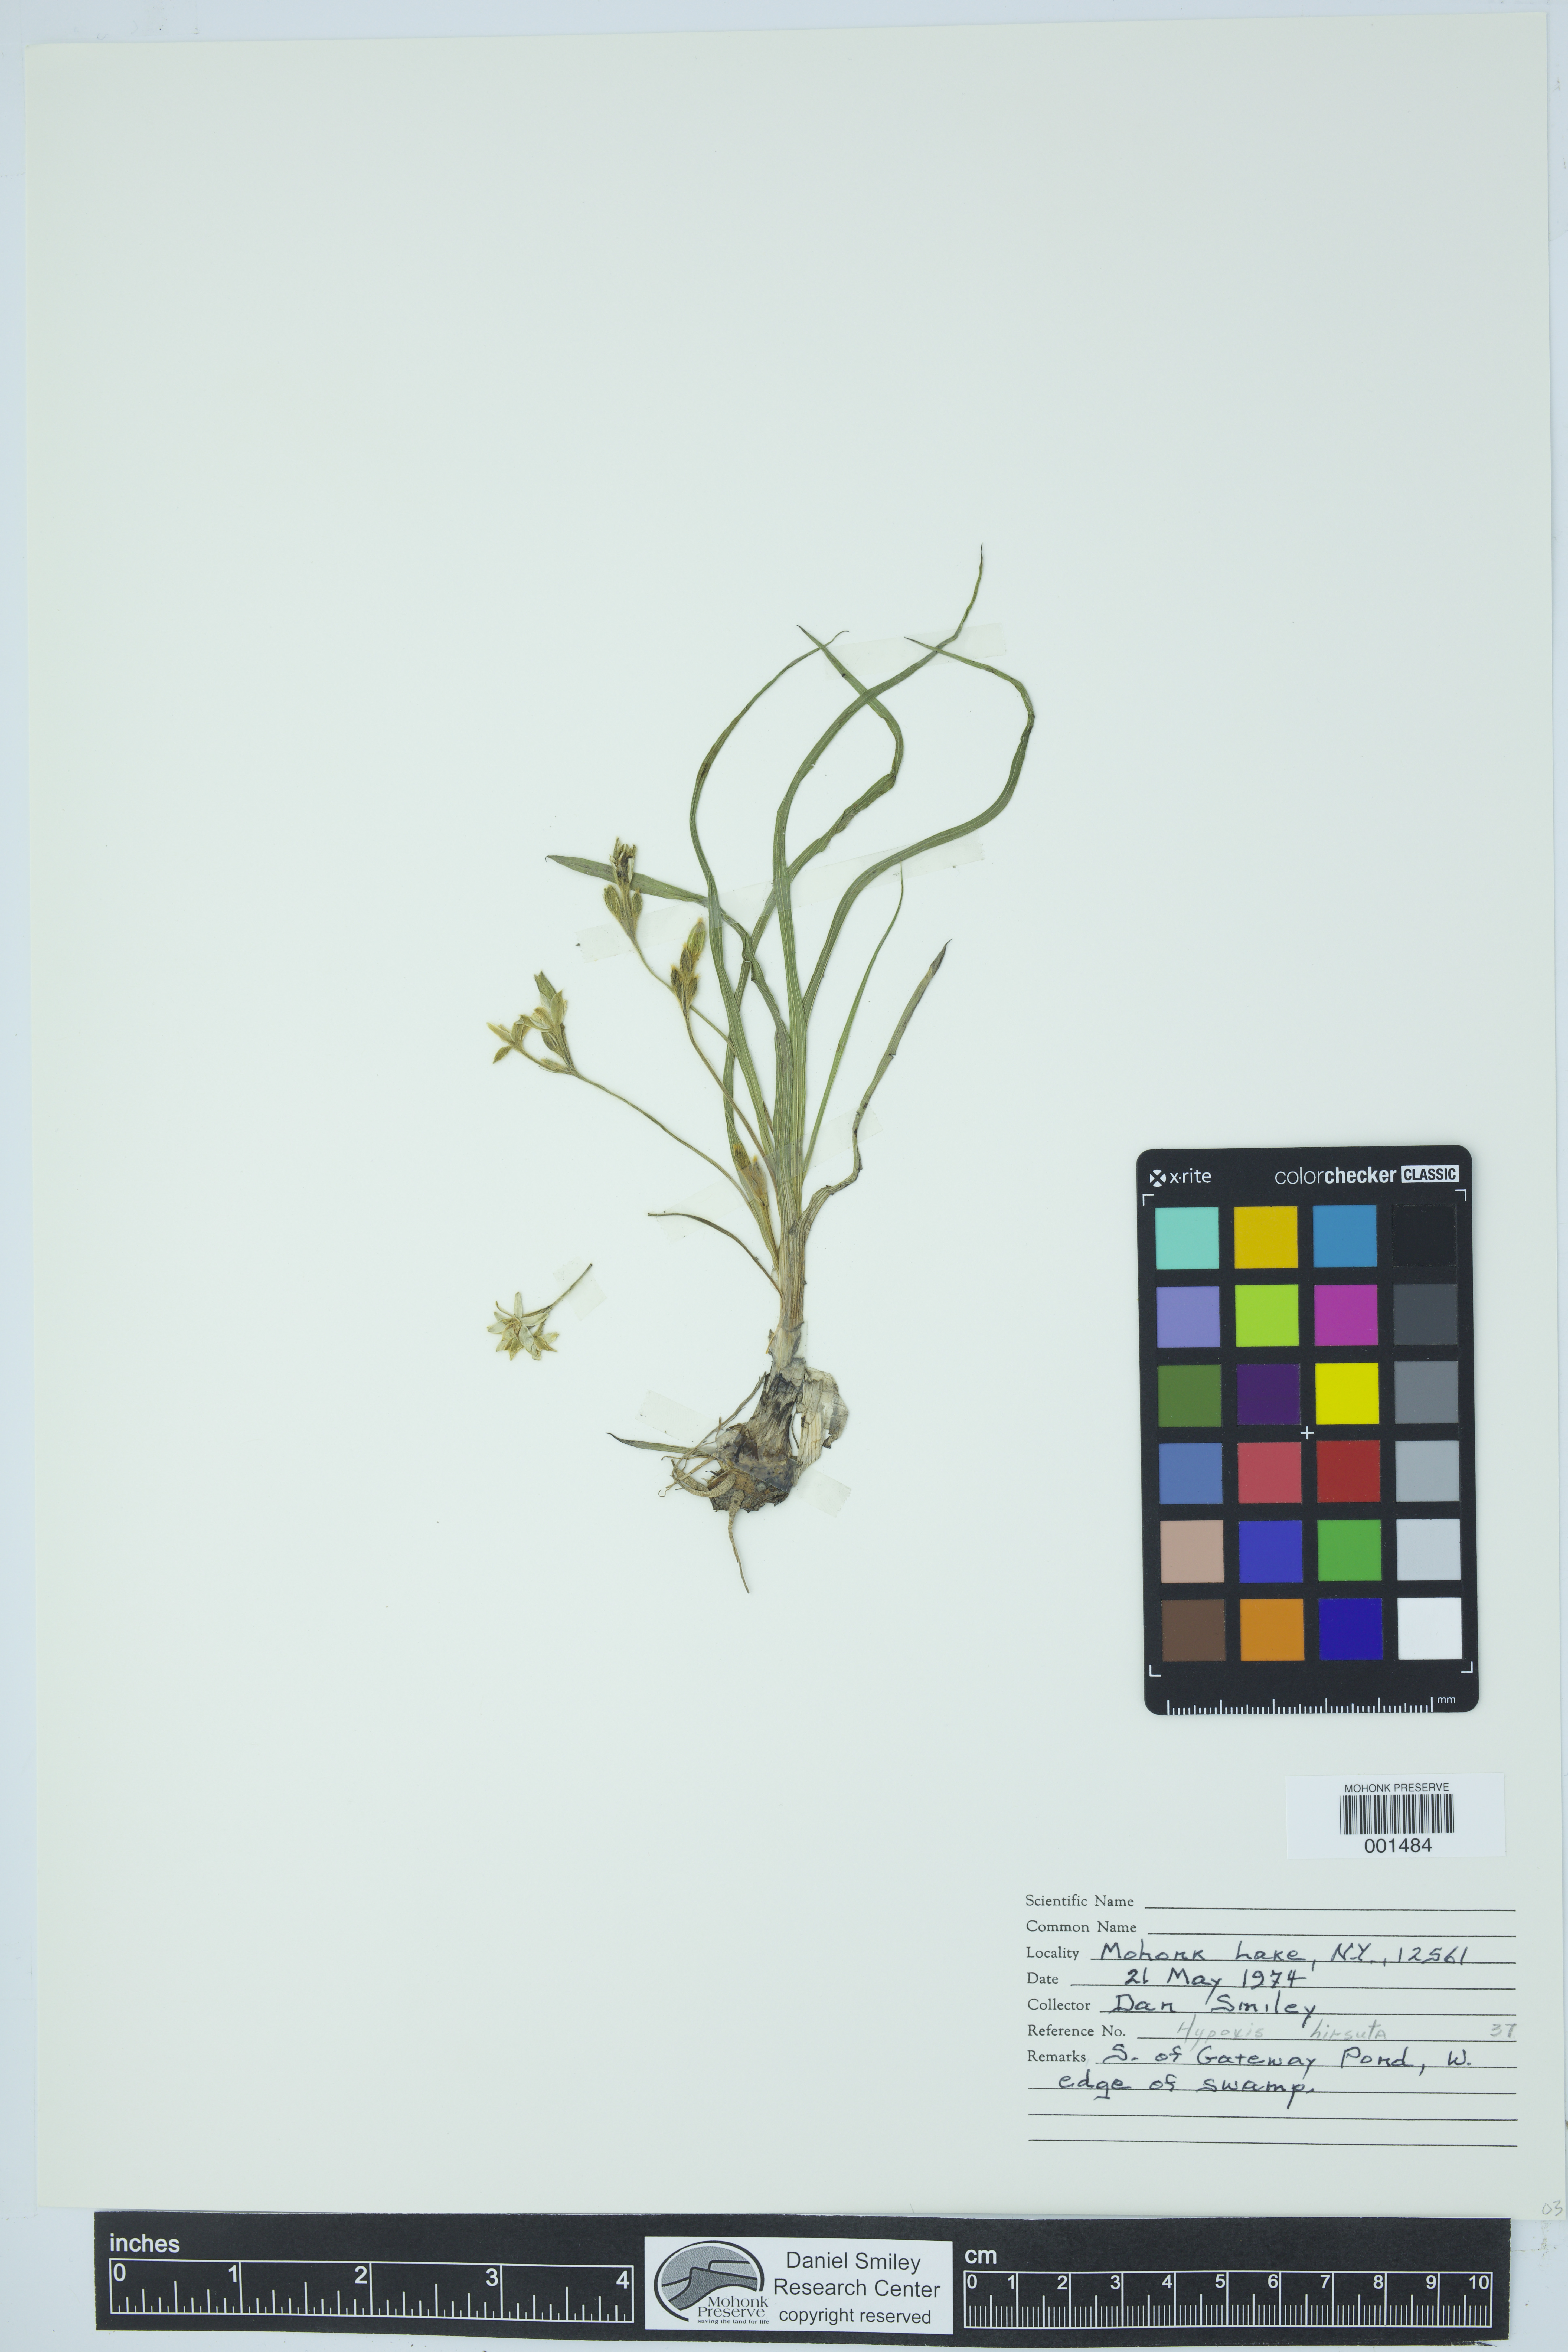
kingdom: Plantae
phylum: Tracheophyta
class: Liliopsida
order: Asparagales
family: Hypoxidaceae
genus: Hypoxis
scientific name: Hypoxis hirsuta
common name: Common goldstar
